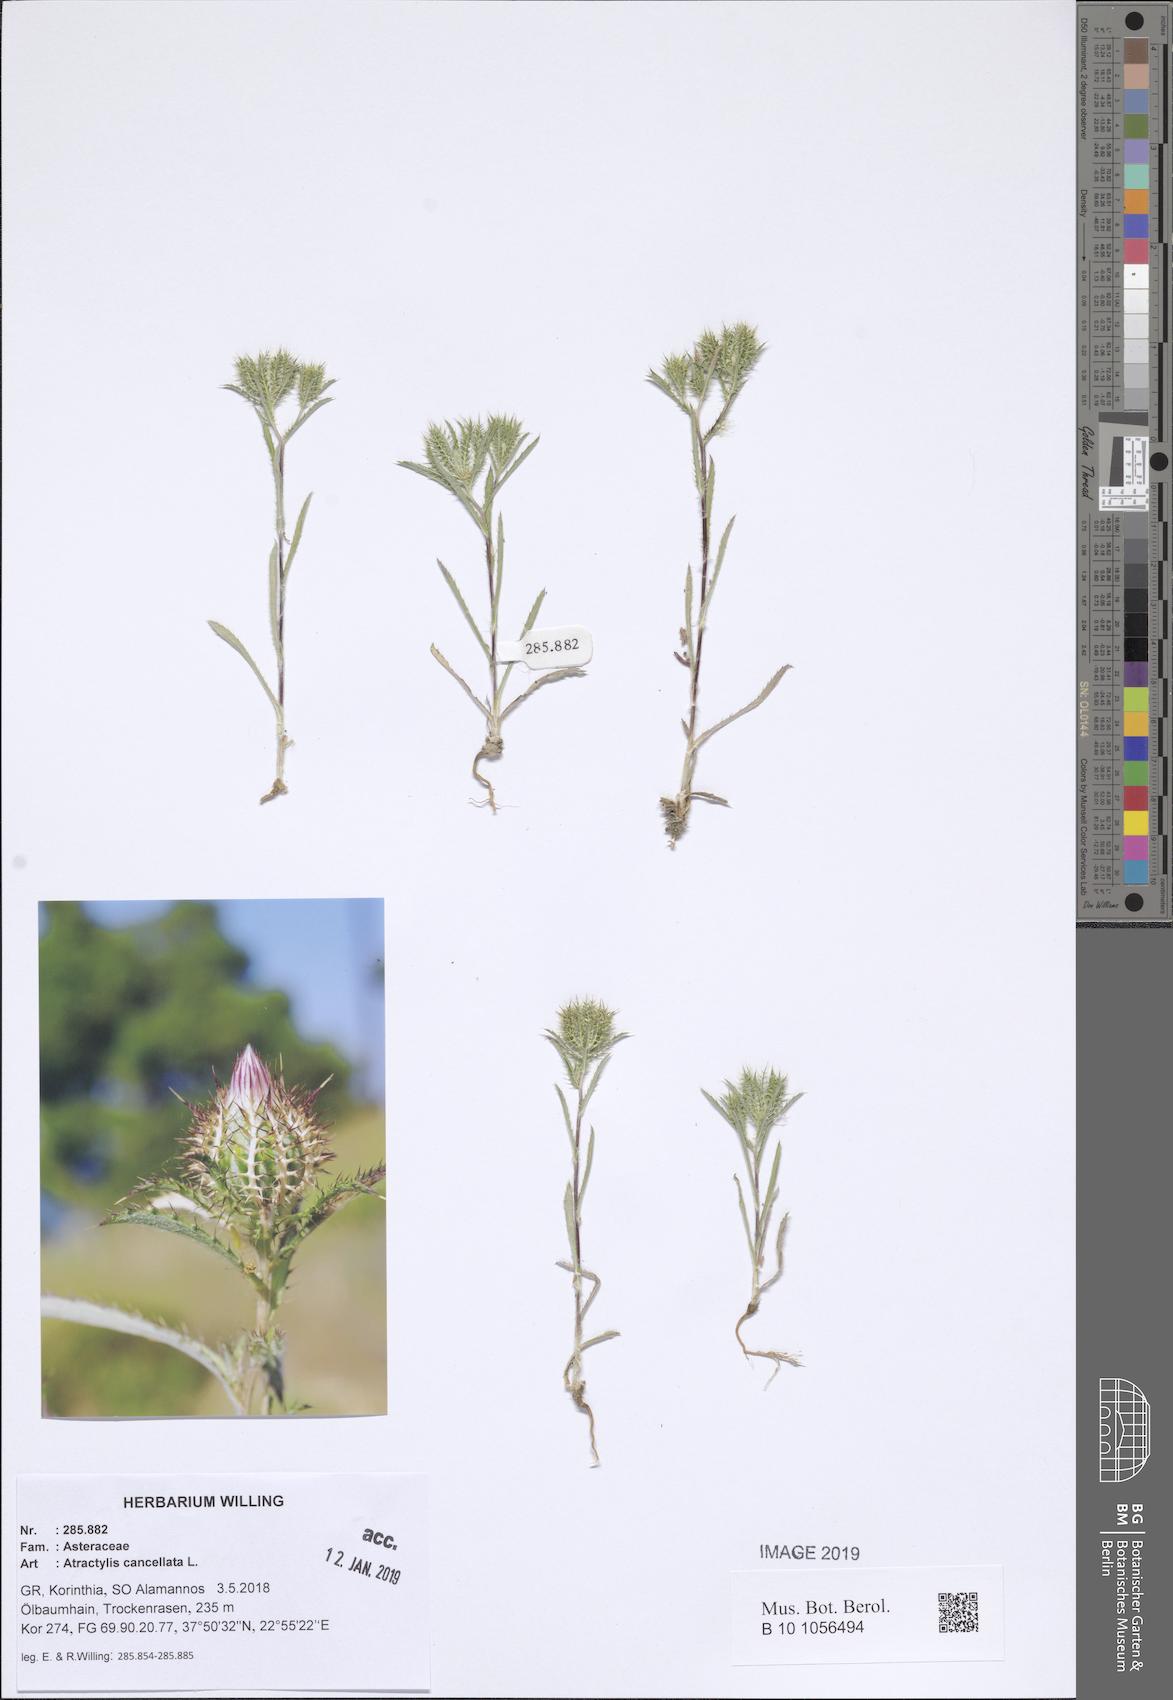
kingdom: Plantae
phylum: Tracheophyta
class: Magnoliopsida
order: Asterales
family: Asteraceae
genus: Atractylis
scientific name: Atractylis cancellata
